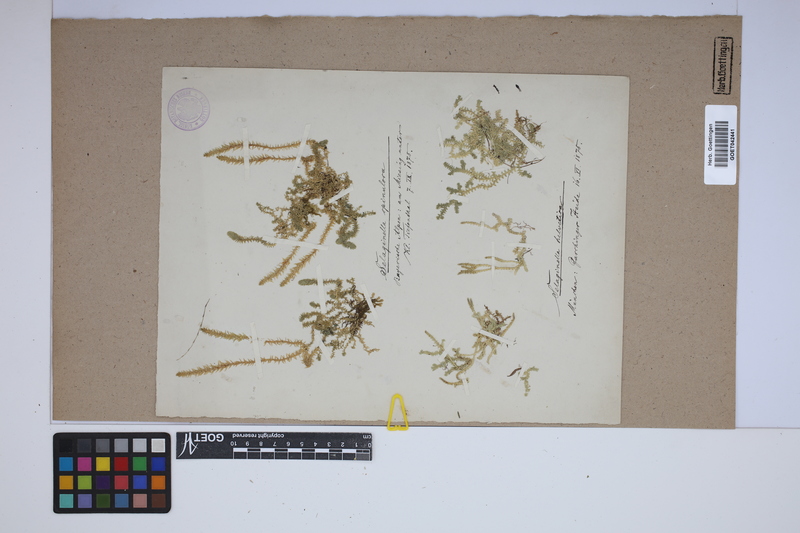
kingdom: Plantae
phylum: Tracheophyta
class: Lycopodiopsida
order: Selaginellales
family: Selaginellaceae
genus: Selaginella
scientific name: Selaginella helvetica
